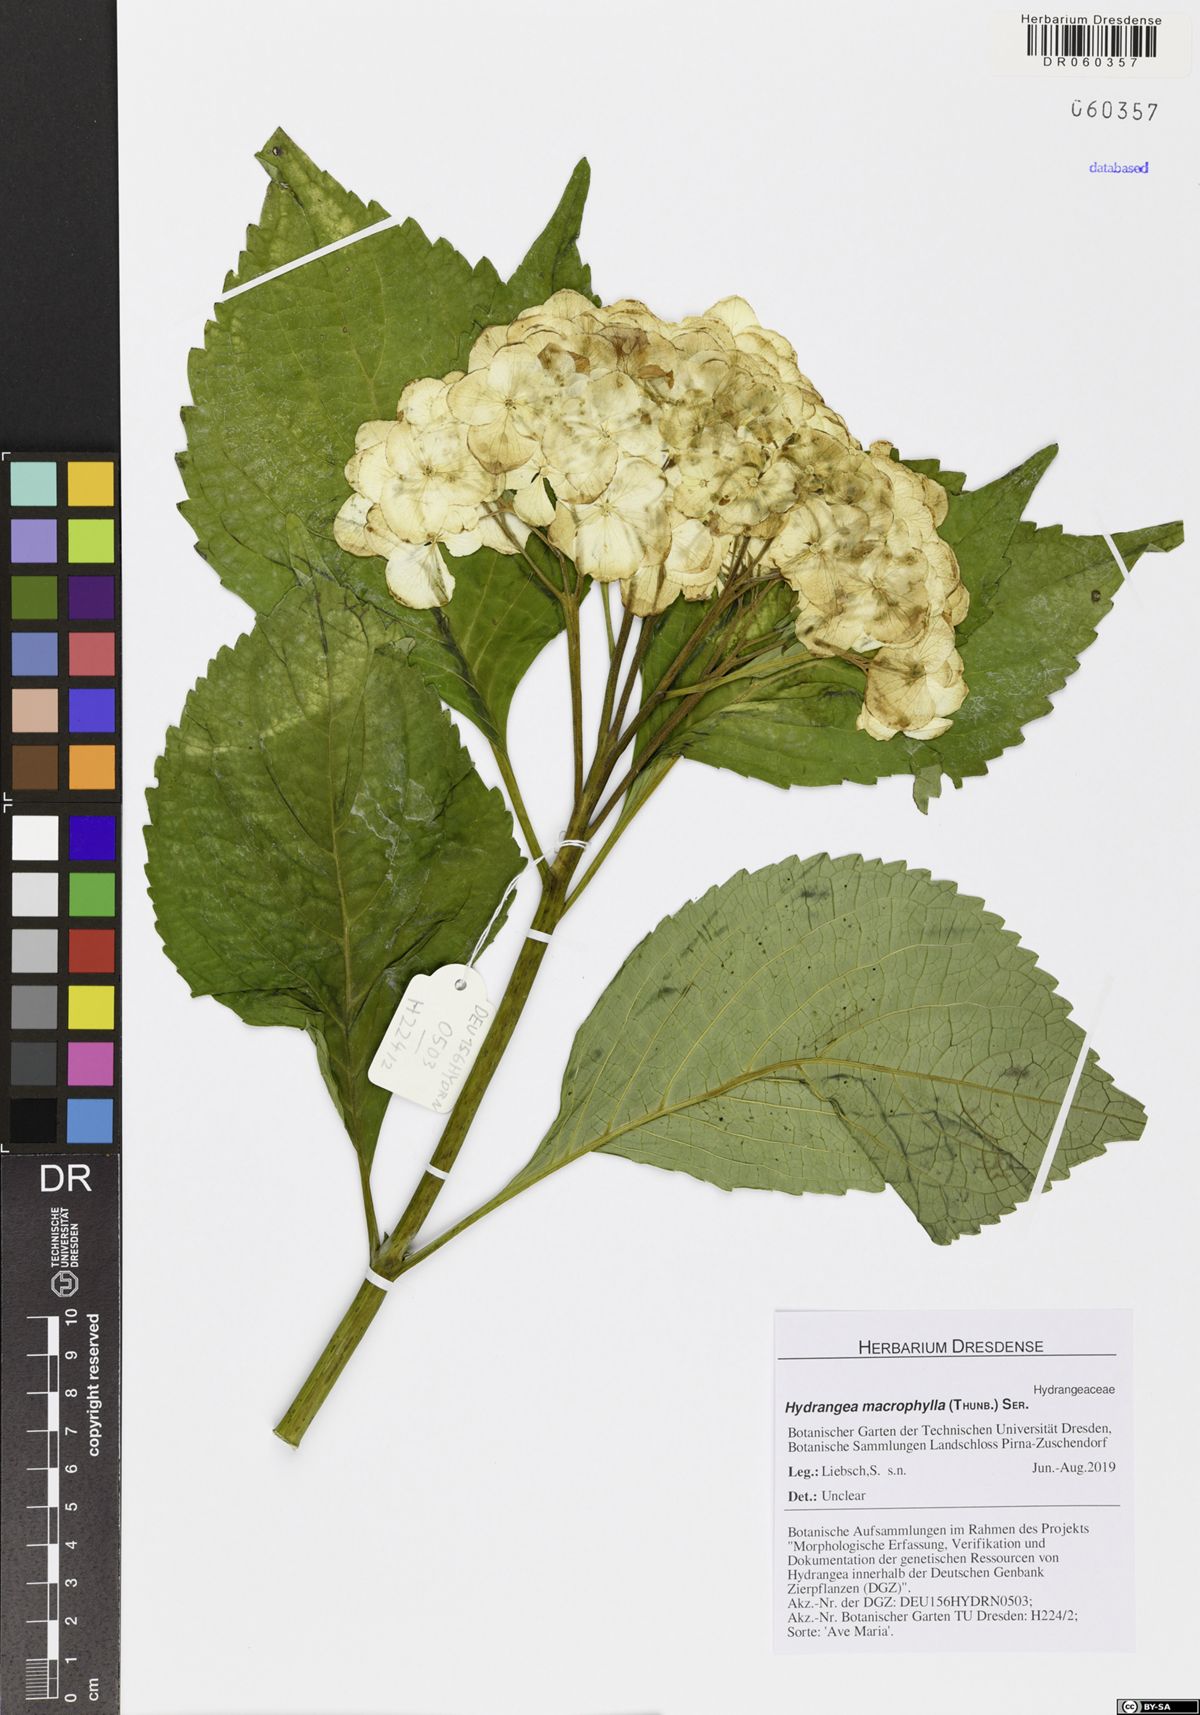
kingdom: Plantae
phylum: Tracheophyta
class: Magnoliopsida
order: Cornales
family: Hydrangeaceae
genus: Hydrangea
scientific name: Hydrangea macrophylla
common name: Hydrangea
